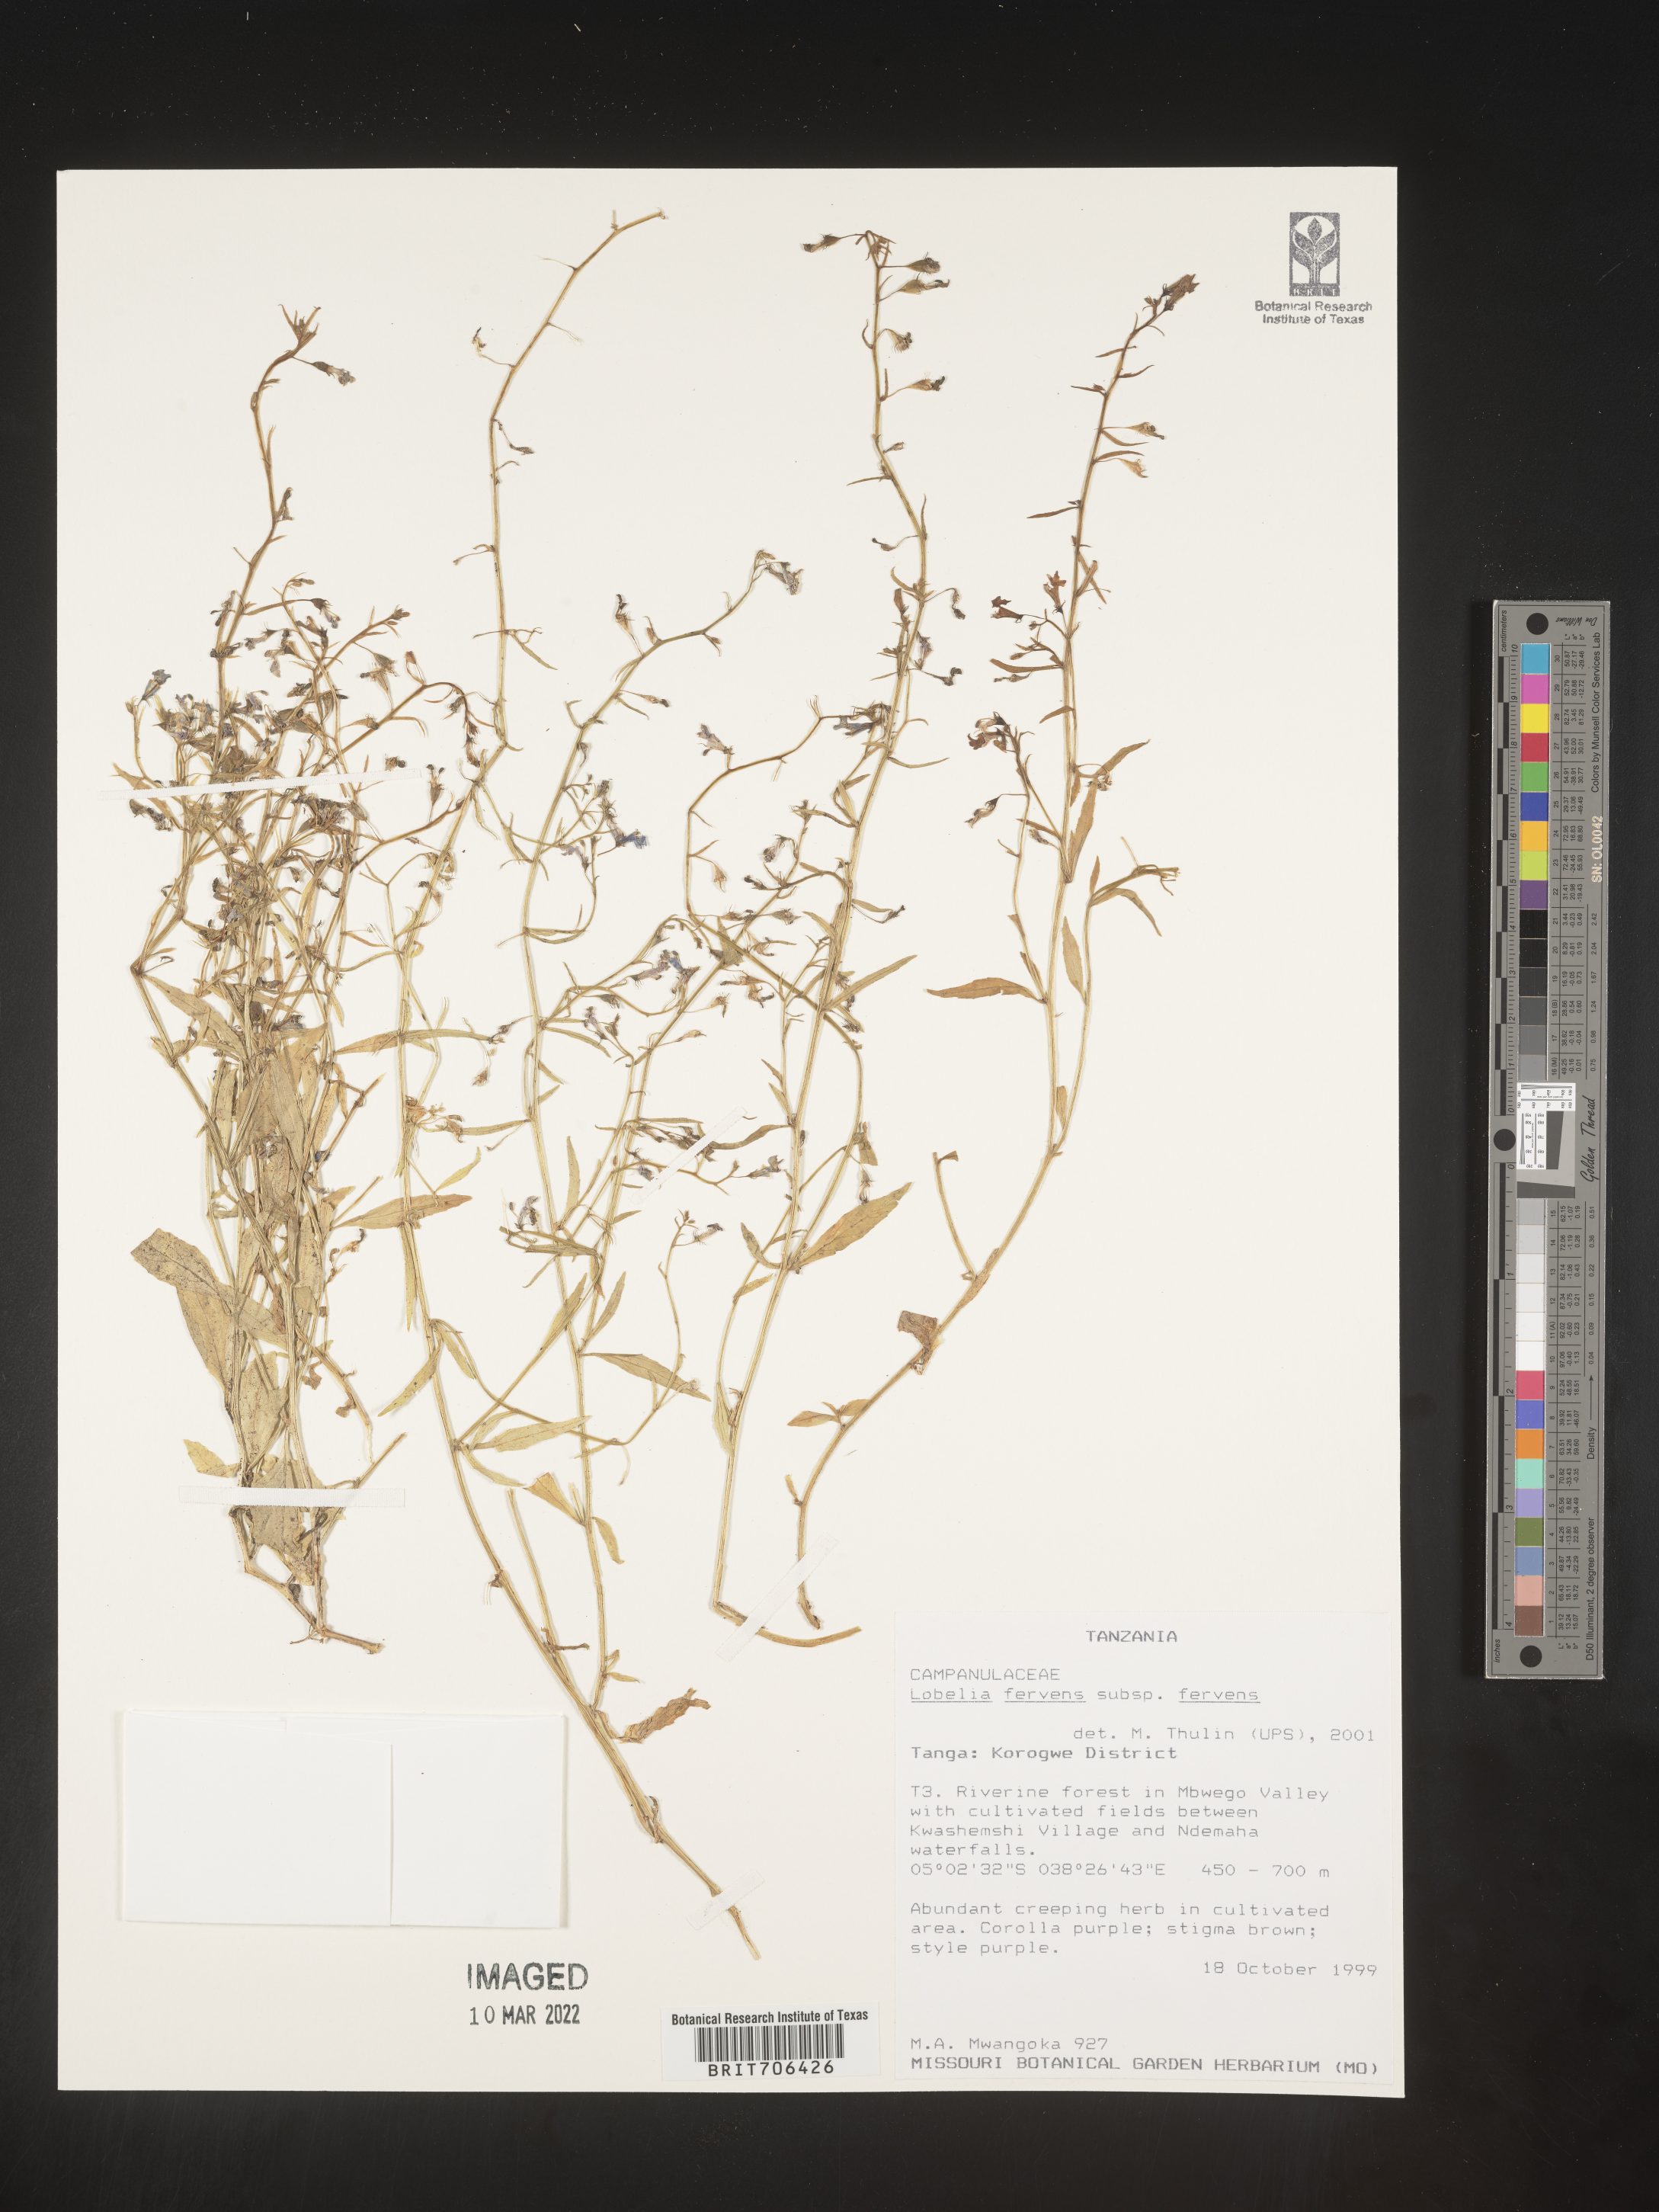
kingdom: Plantae
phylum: Tracheophyta
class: Magnoliopsida
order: Asterales
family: Campanulaceae
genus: Lobelia
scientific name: Lobelia
